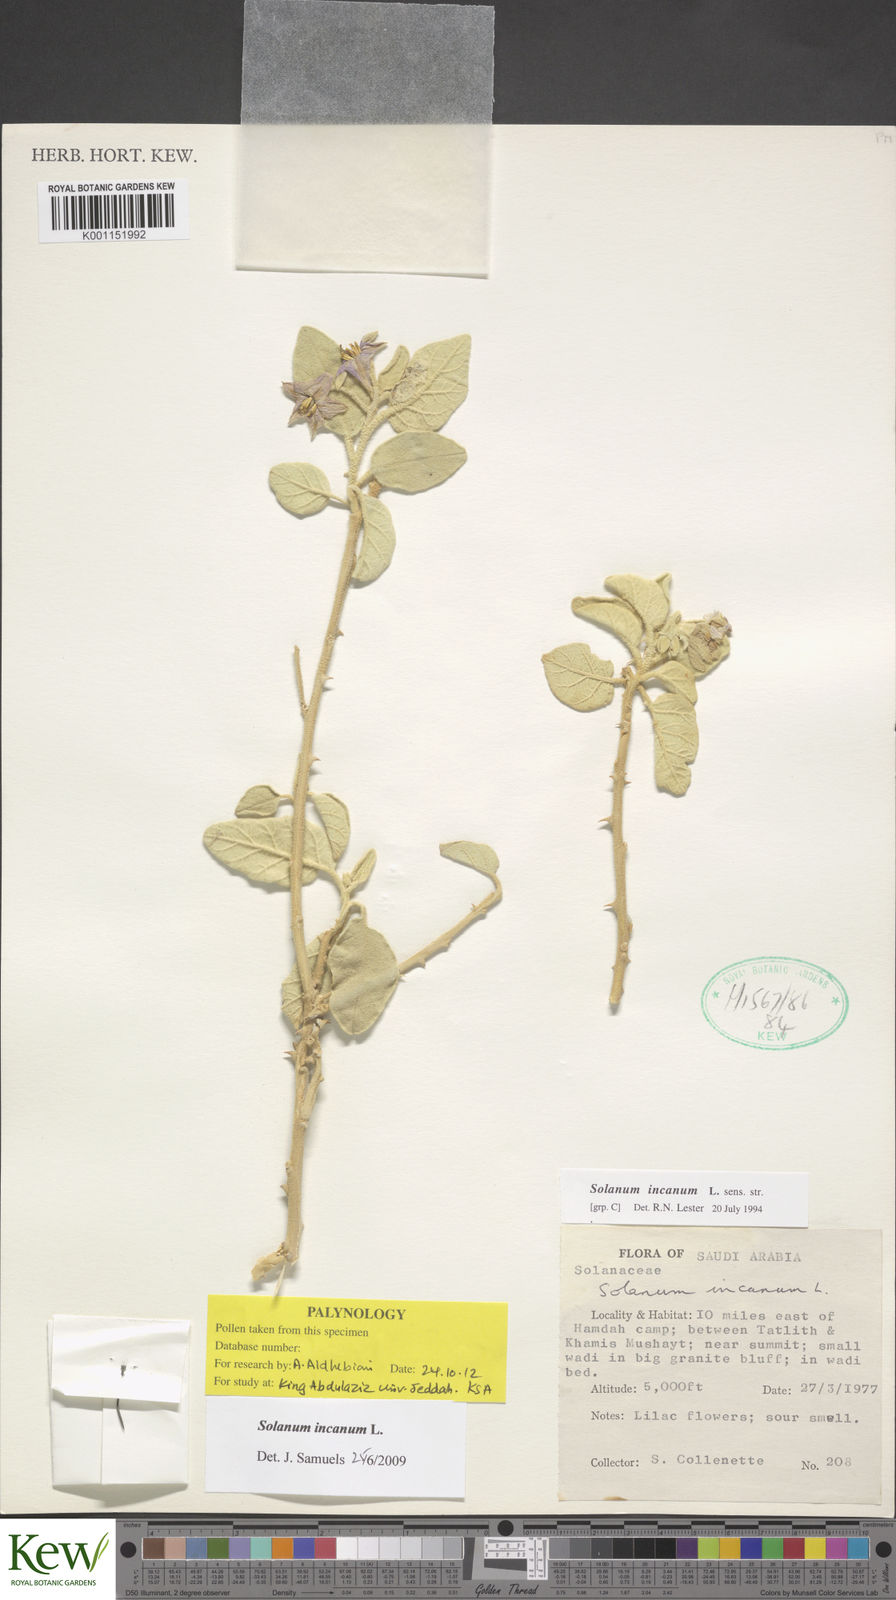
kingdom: Plantae
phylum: Tracheophyta
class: Magnoliopsida
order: Solanales
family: Solanaceae
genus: Solanum
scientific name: Solanum incanum
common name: Bitter apple
